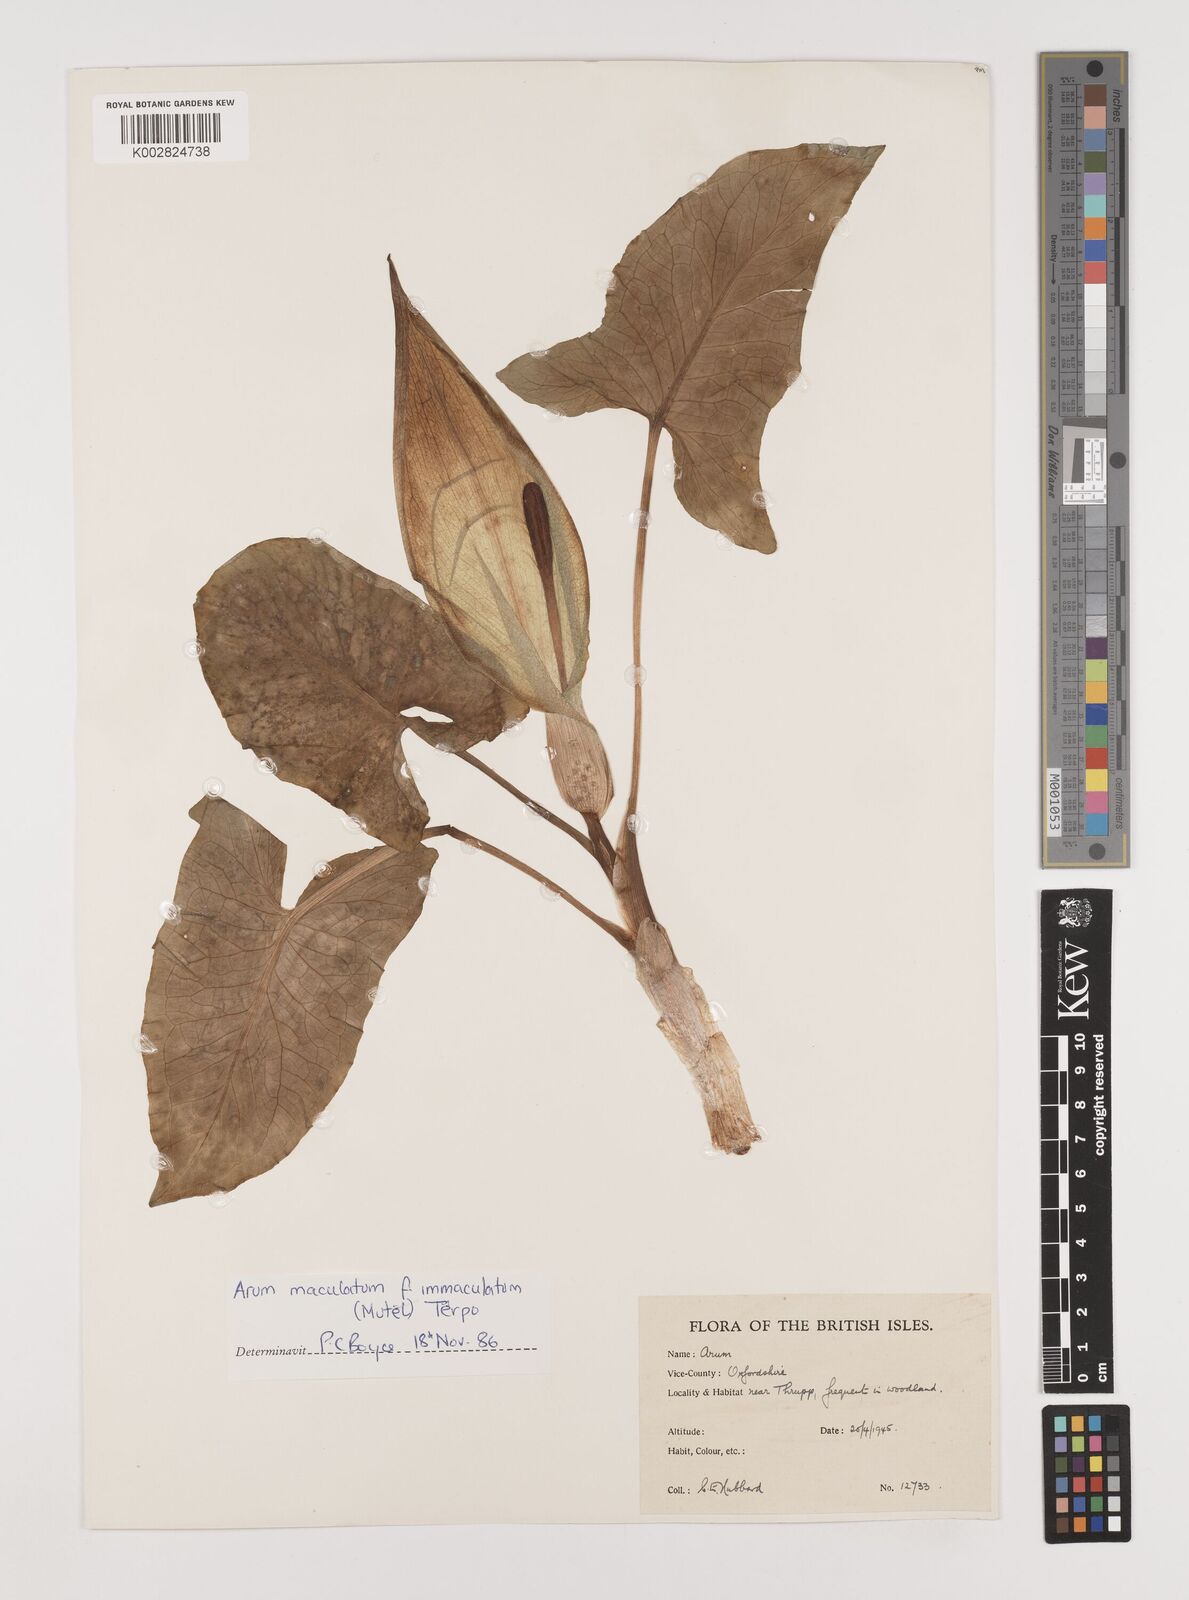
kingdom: Plantae
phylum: Tracheophyta
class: Liliopsida
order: Alismatales
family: Araceae
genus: Arum
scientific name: Arum maculatum
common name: Lords-and-ladies
